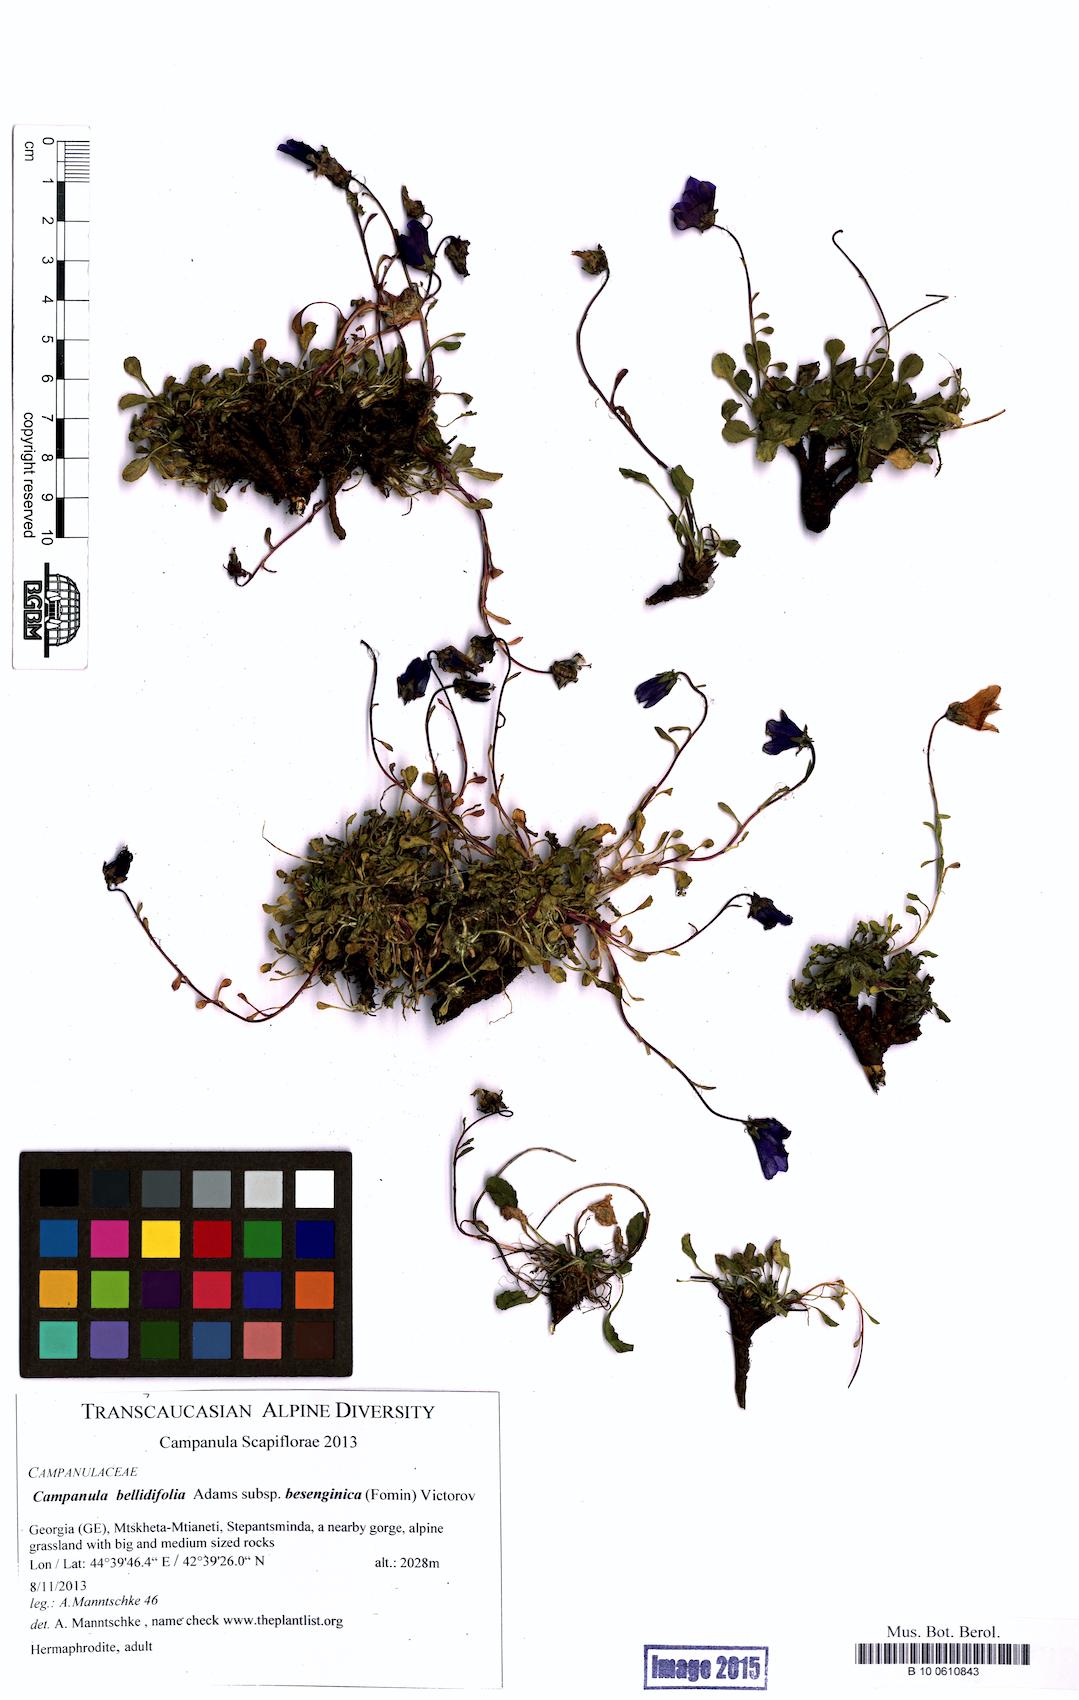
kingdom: Plantae
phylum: Tracheophyta
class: Magnoliopsida
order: Asterales
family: Campanulaceae
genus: Campanula
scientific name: Campanula bellidifolia
